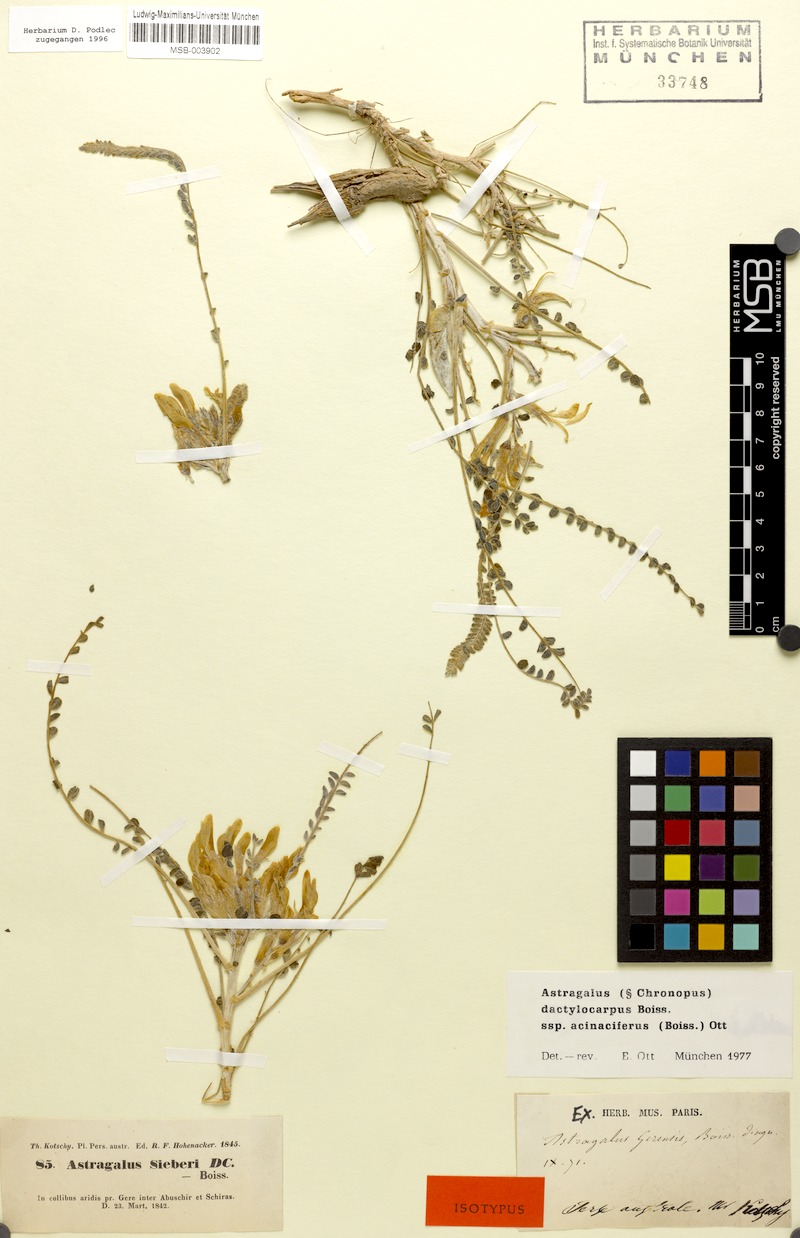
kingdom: Plantae
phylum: Tracheophyta
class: Magnoliopsida
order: Fabales
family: Fabaceae
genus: Astragalus
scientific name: Astragalus dactylocarpus
